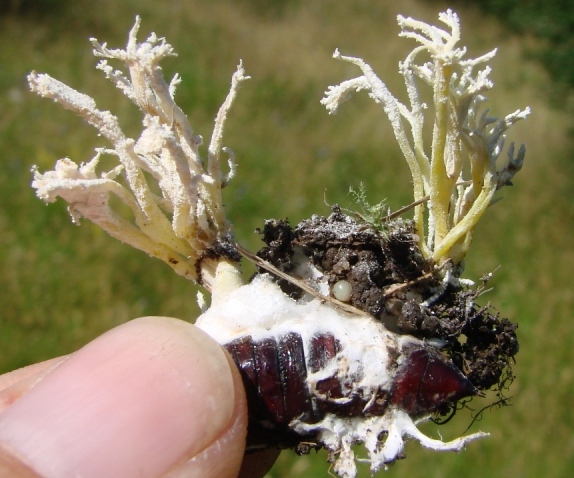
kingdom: Fungi
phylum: Ascomycota
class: Sordariomycetes
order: Hypocreales
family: Cordycipitaceae
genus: Cordyceps
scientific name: Cordyceps tenuipes
